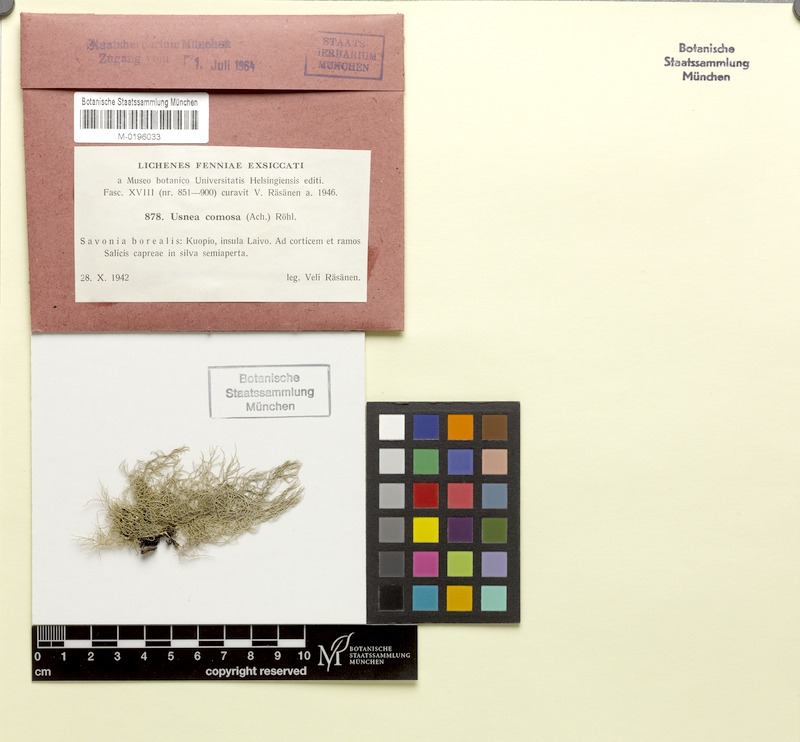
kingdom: Fungi
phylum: Ascomycota
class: Lecanoromycetes
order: Lecanorales
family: Parmeliaceae
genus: Usnea
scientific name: Usnea subfloridana
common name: Boreal beard lichen
